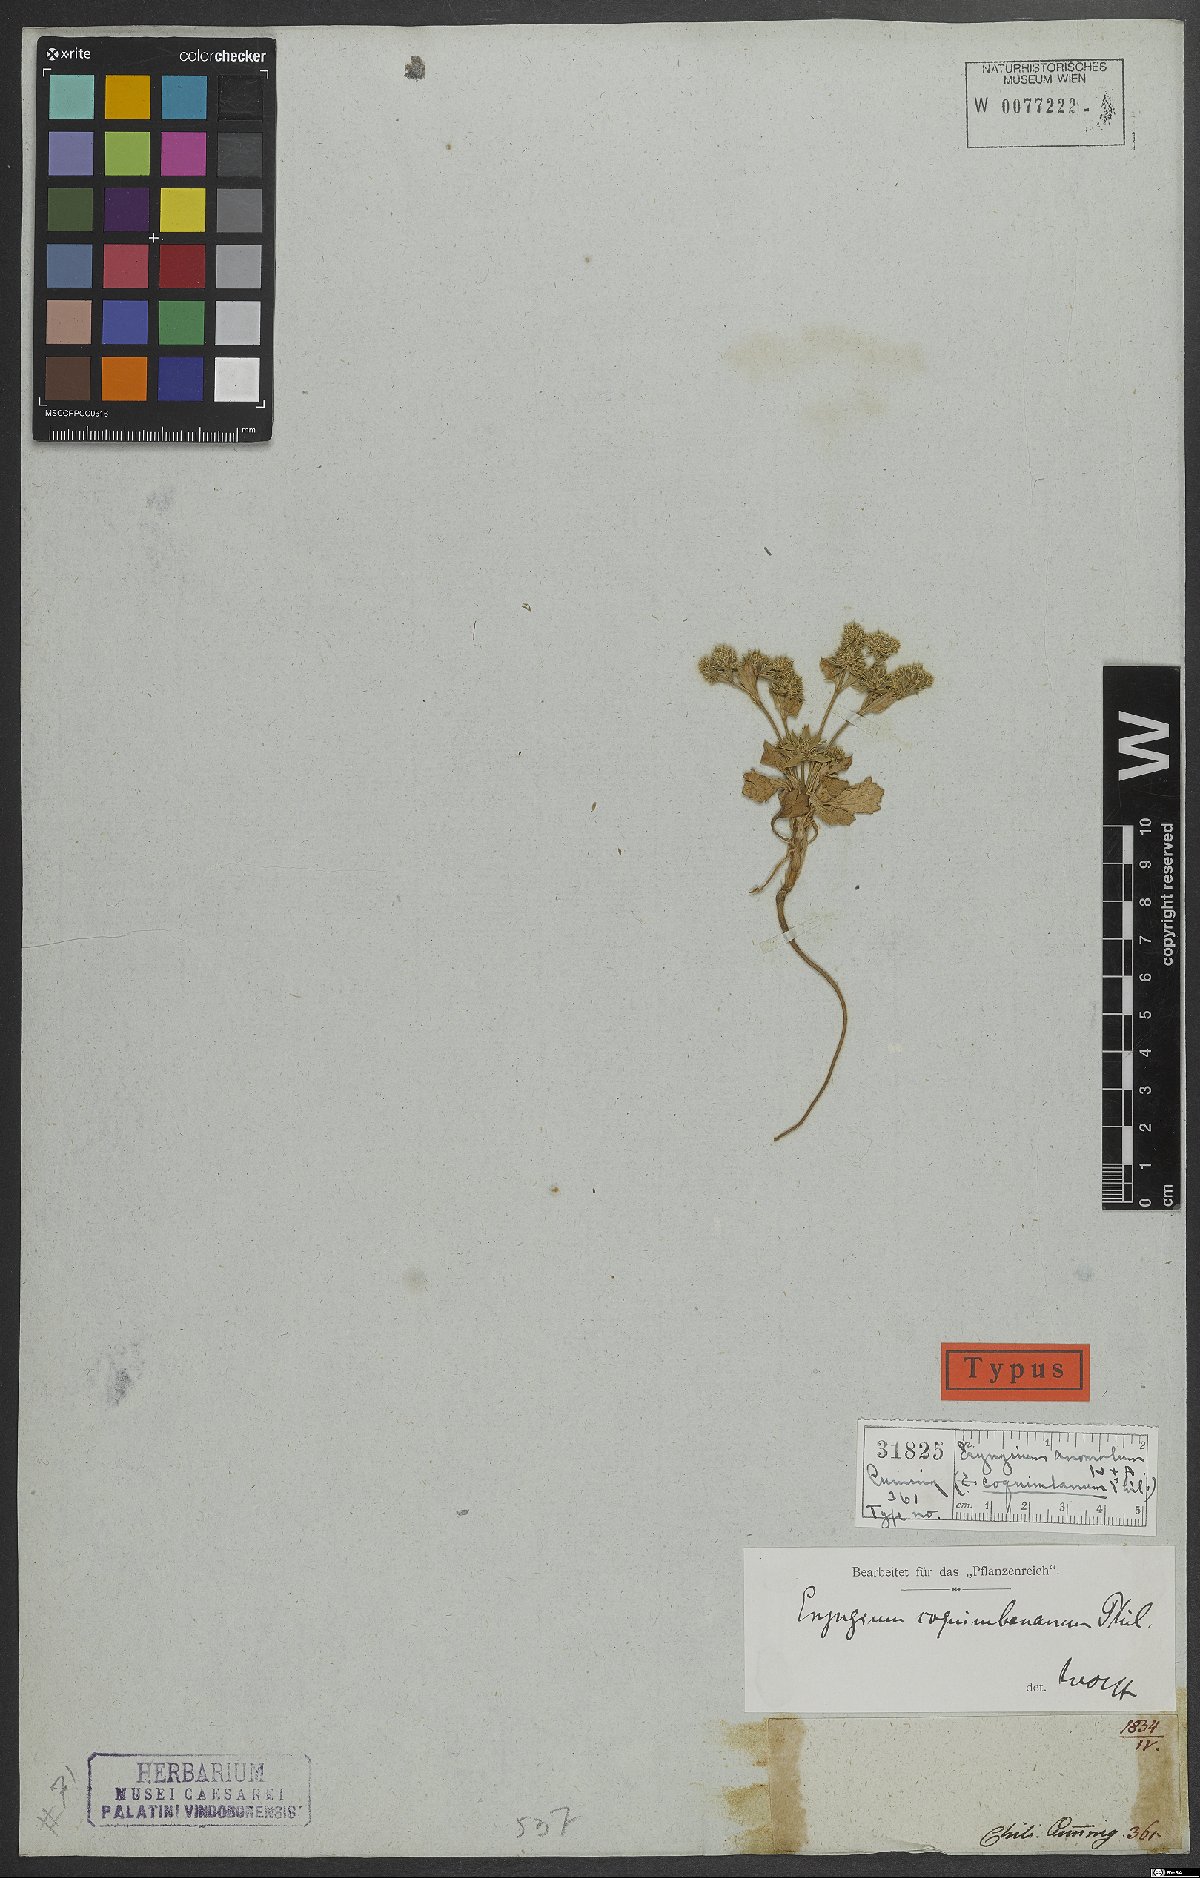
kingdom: Plantae
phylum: Tracheophyta
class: Magnoliopsida
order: Apiales
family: Apiaceae
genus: Eryngium
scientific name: Eryngium anomalum
